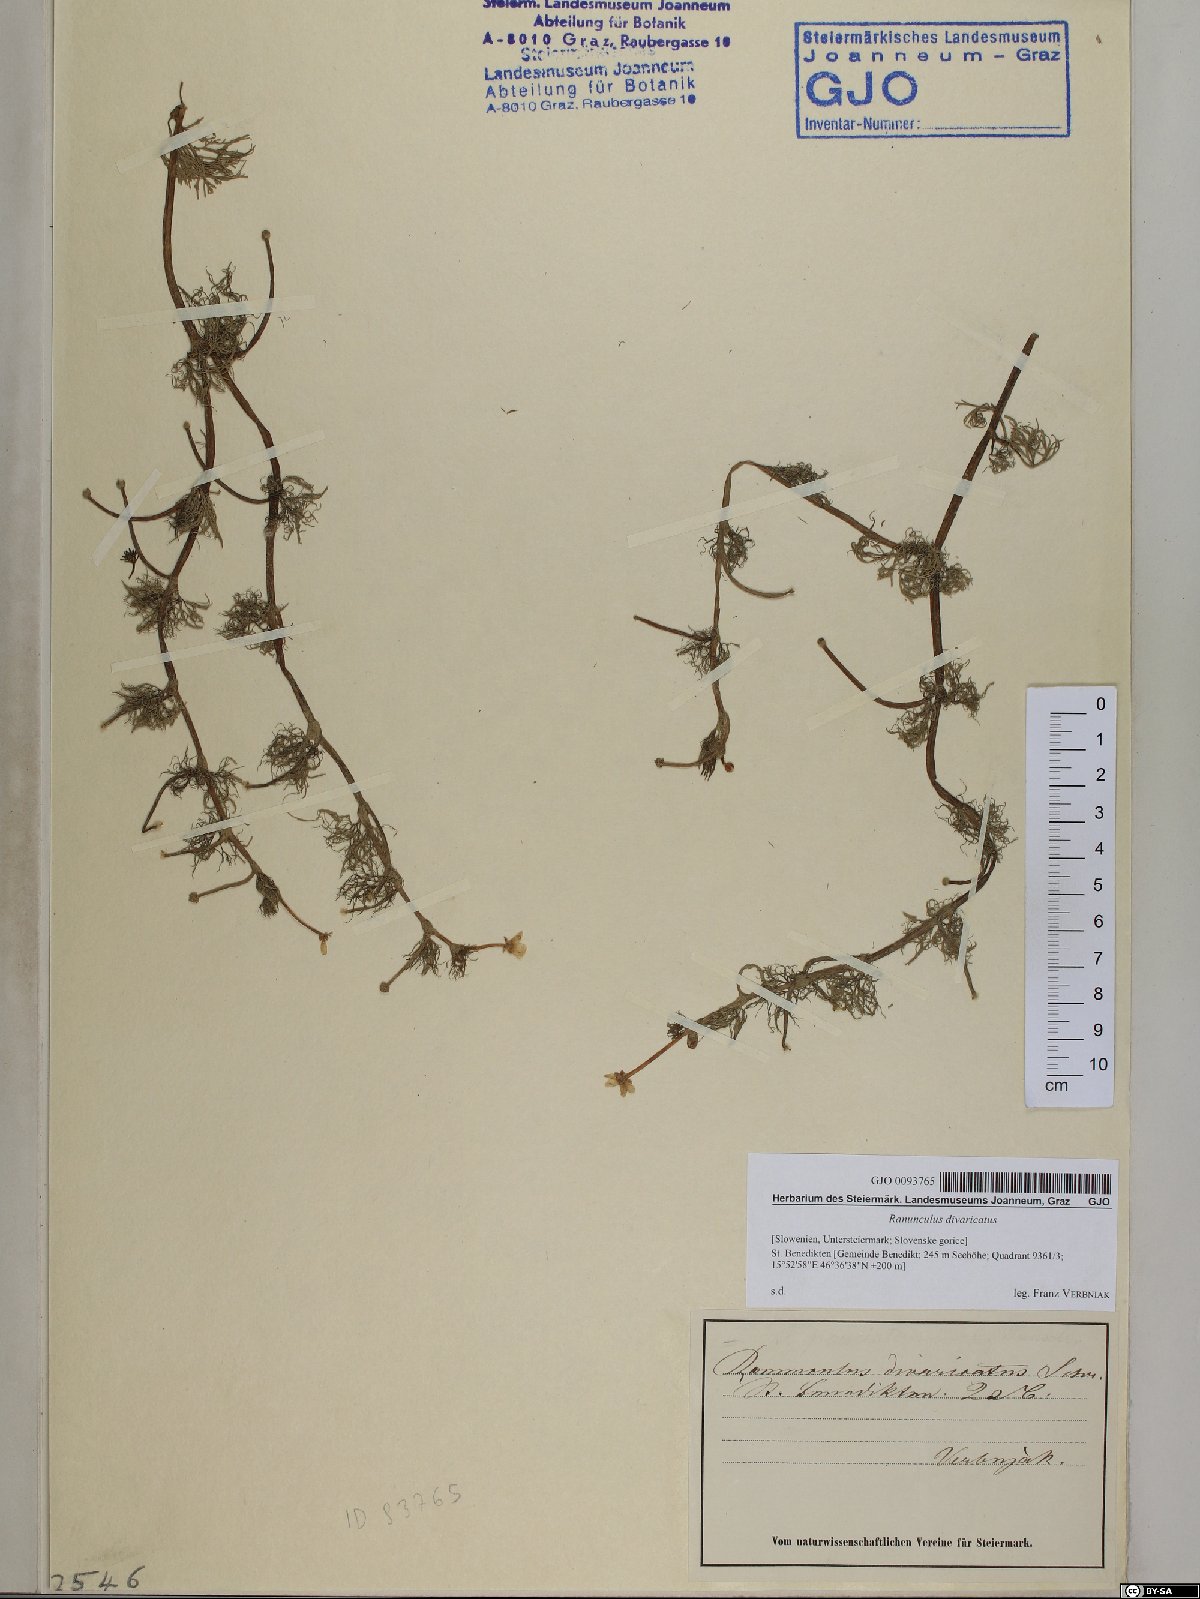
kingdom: Plantae
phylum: Tracheophyta
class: Magnoliopsida
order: Ranunculales
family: Ranunculaceae
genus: Ranunculus
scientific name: Ranunculus trichophyllus
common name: Thread-leaved water-crowfoot
